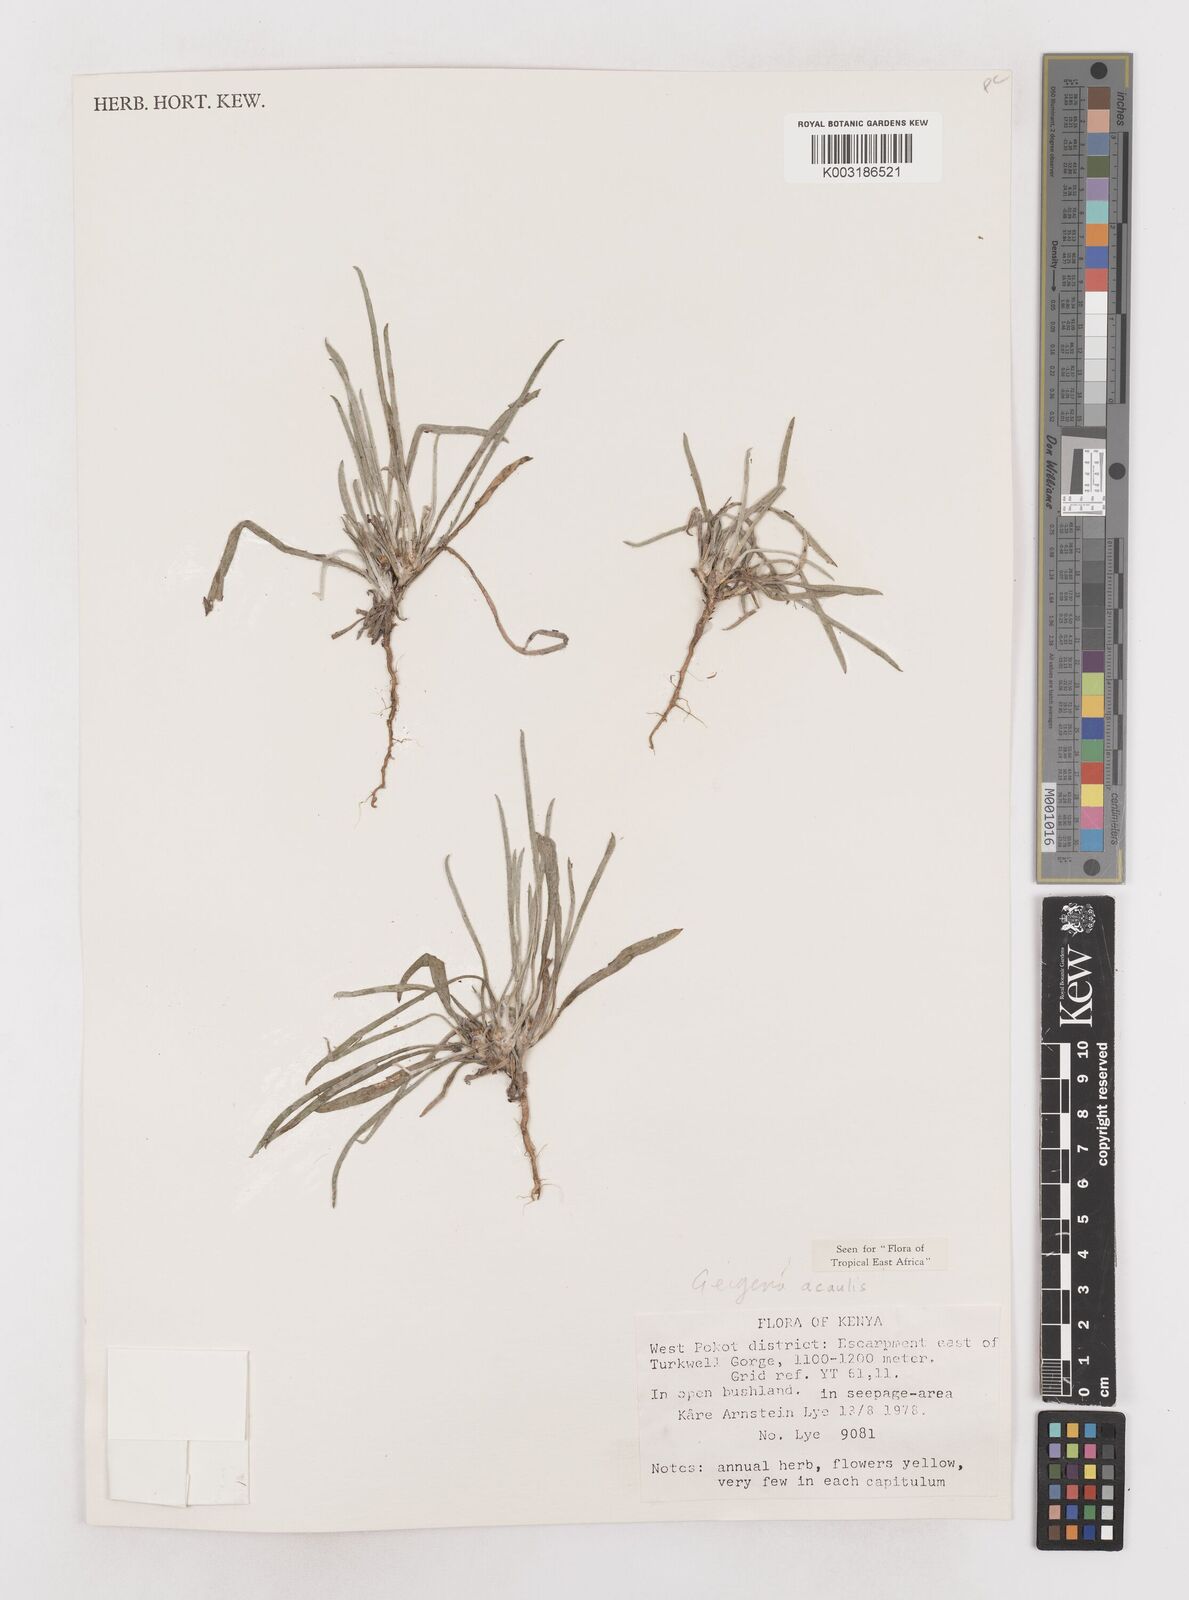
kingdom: Plantae
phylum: Tracheophyta
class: Magnoliopsida
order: Asterales
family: Asteraceae
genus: Geigeria
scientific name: Geigeria acaulis
